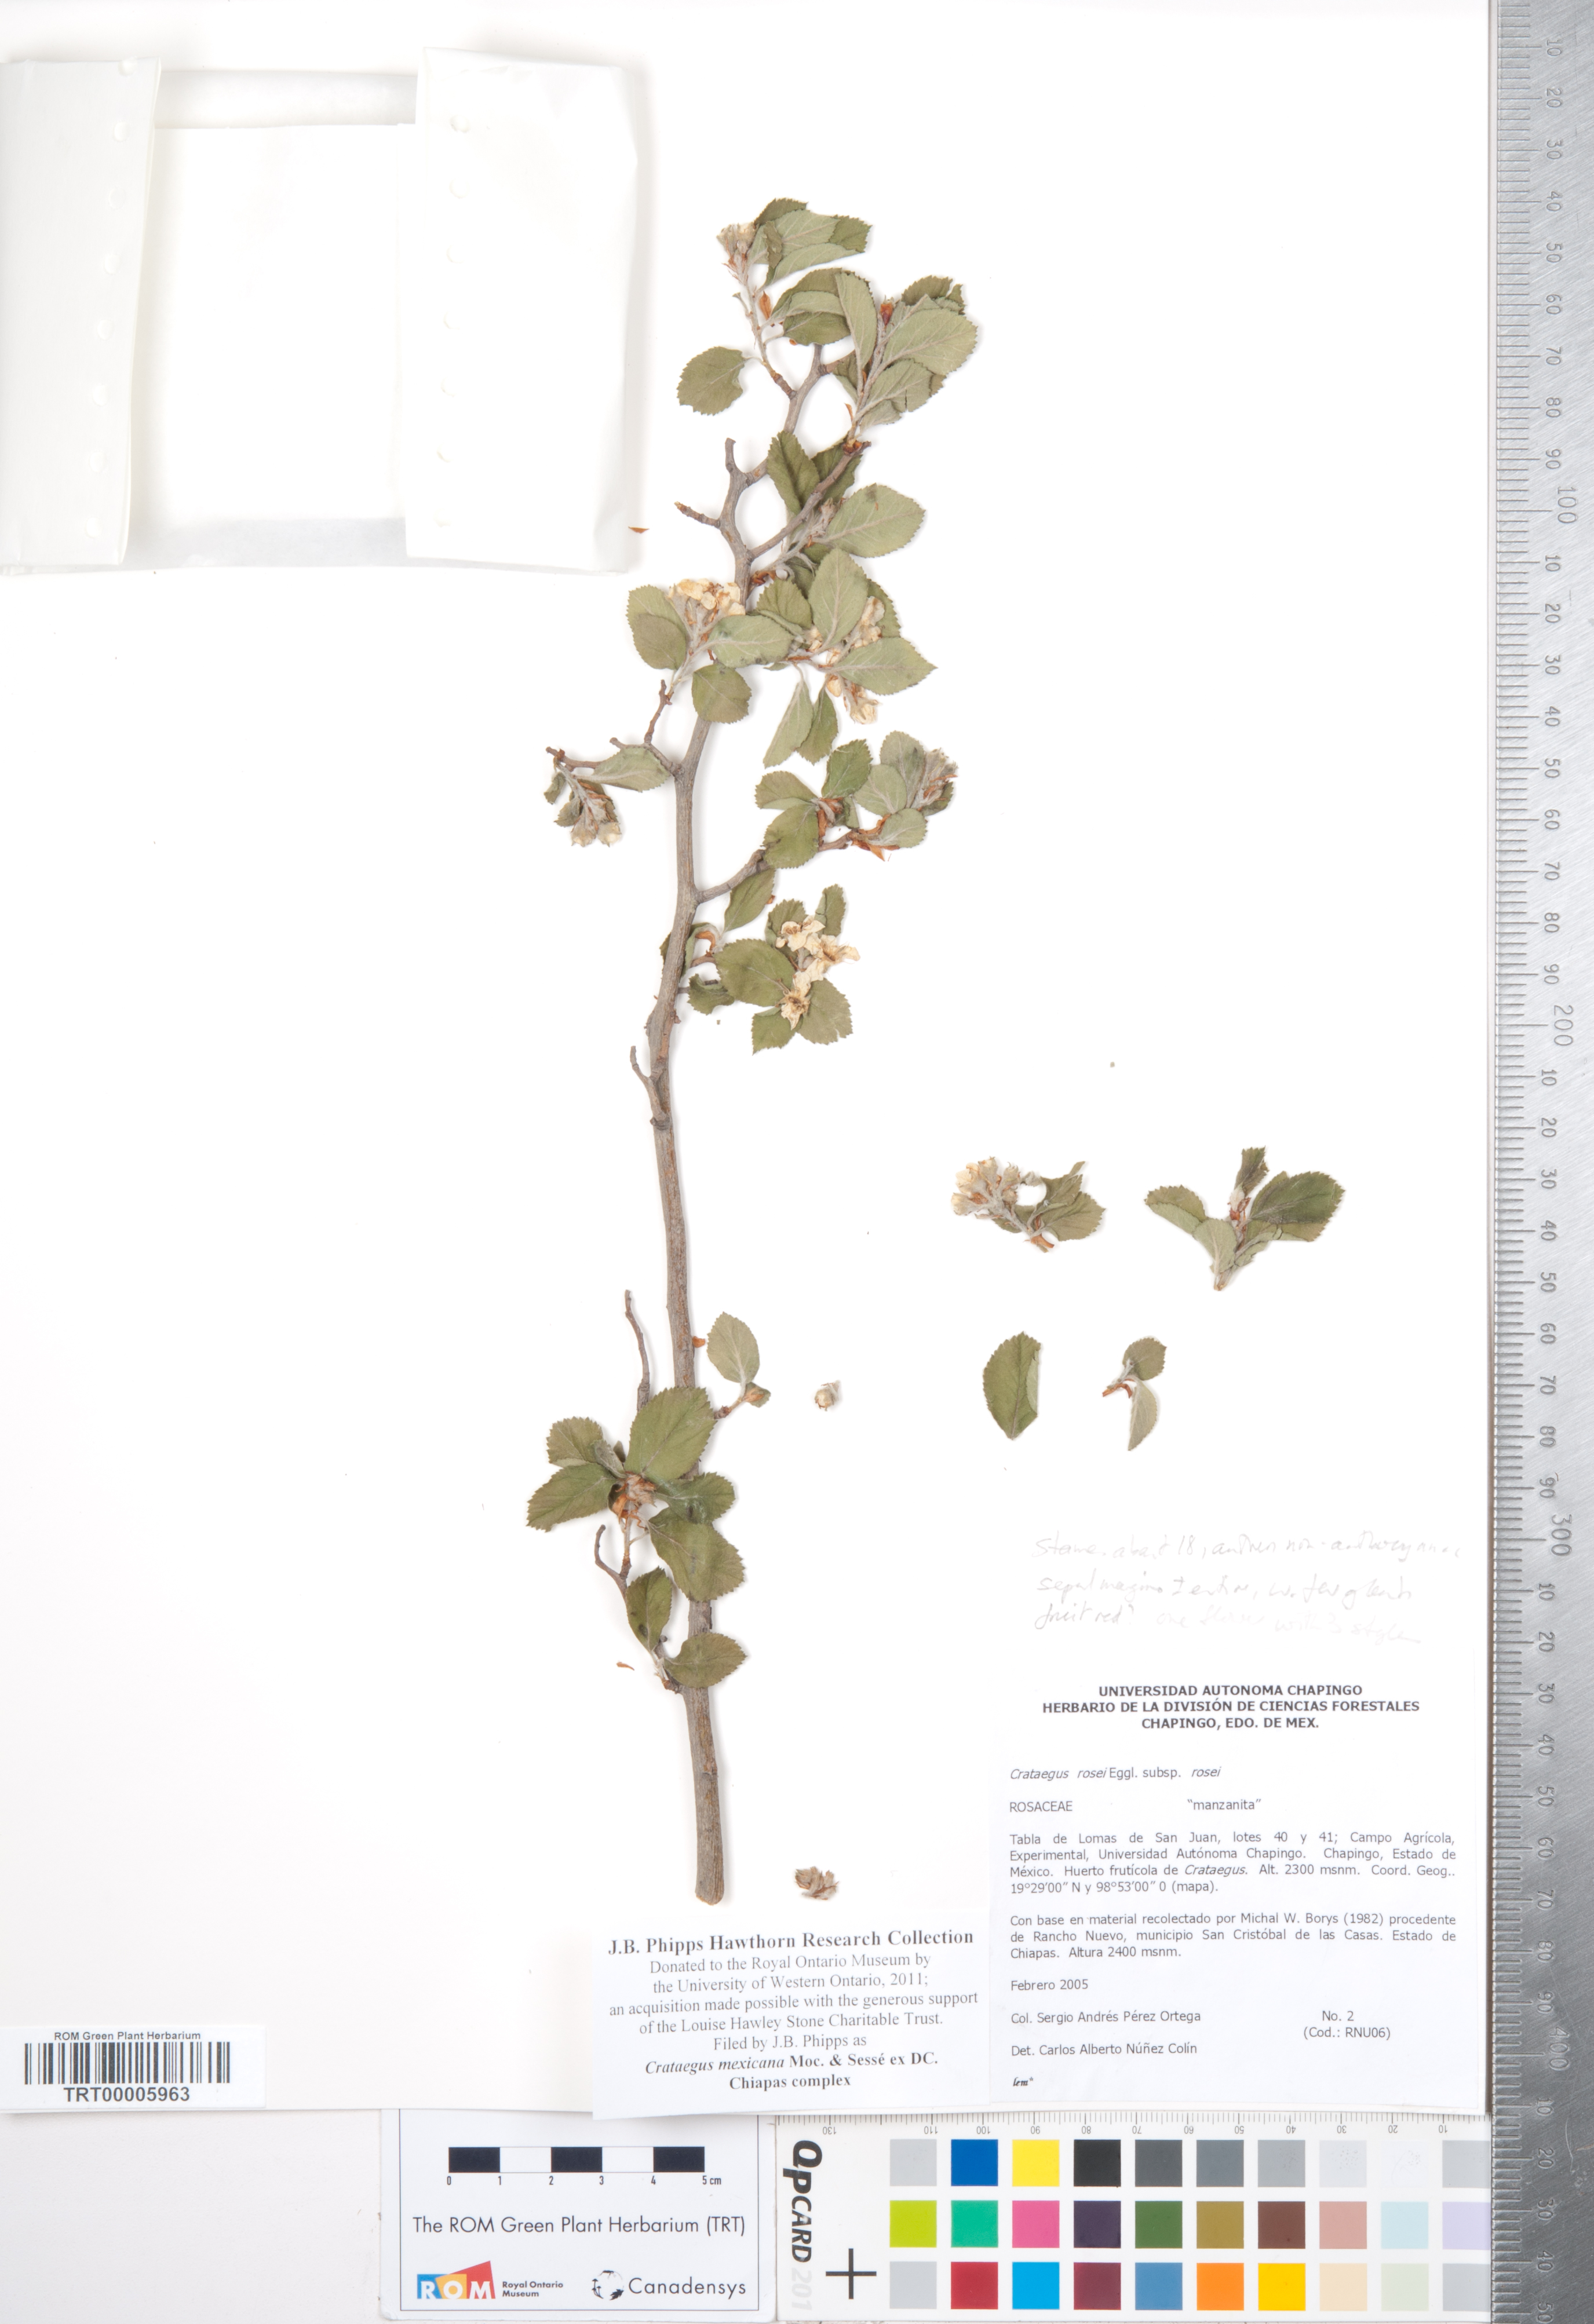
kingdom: Plantae
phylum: Tracheophyta
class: Magnoliopsida
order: Rosales
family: Rosaceae
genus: Crataegus
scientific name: Crataegus mexicana
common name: Mexican hawthorn
